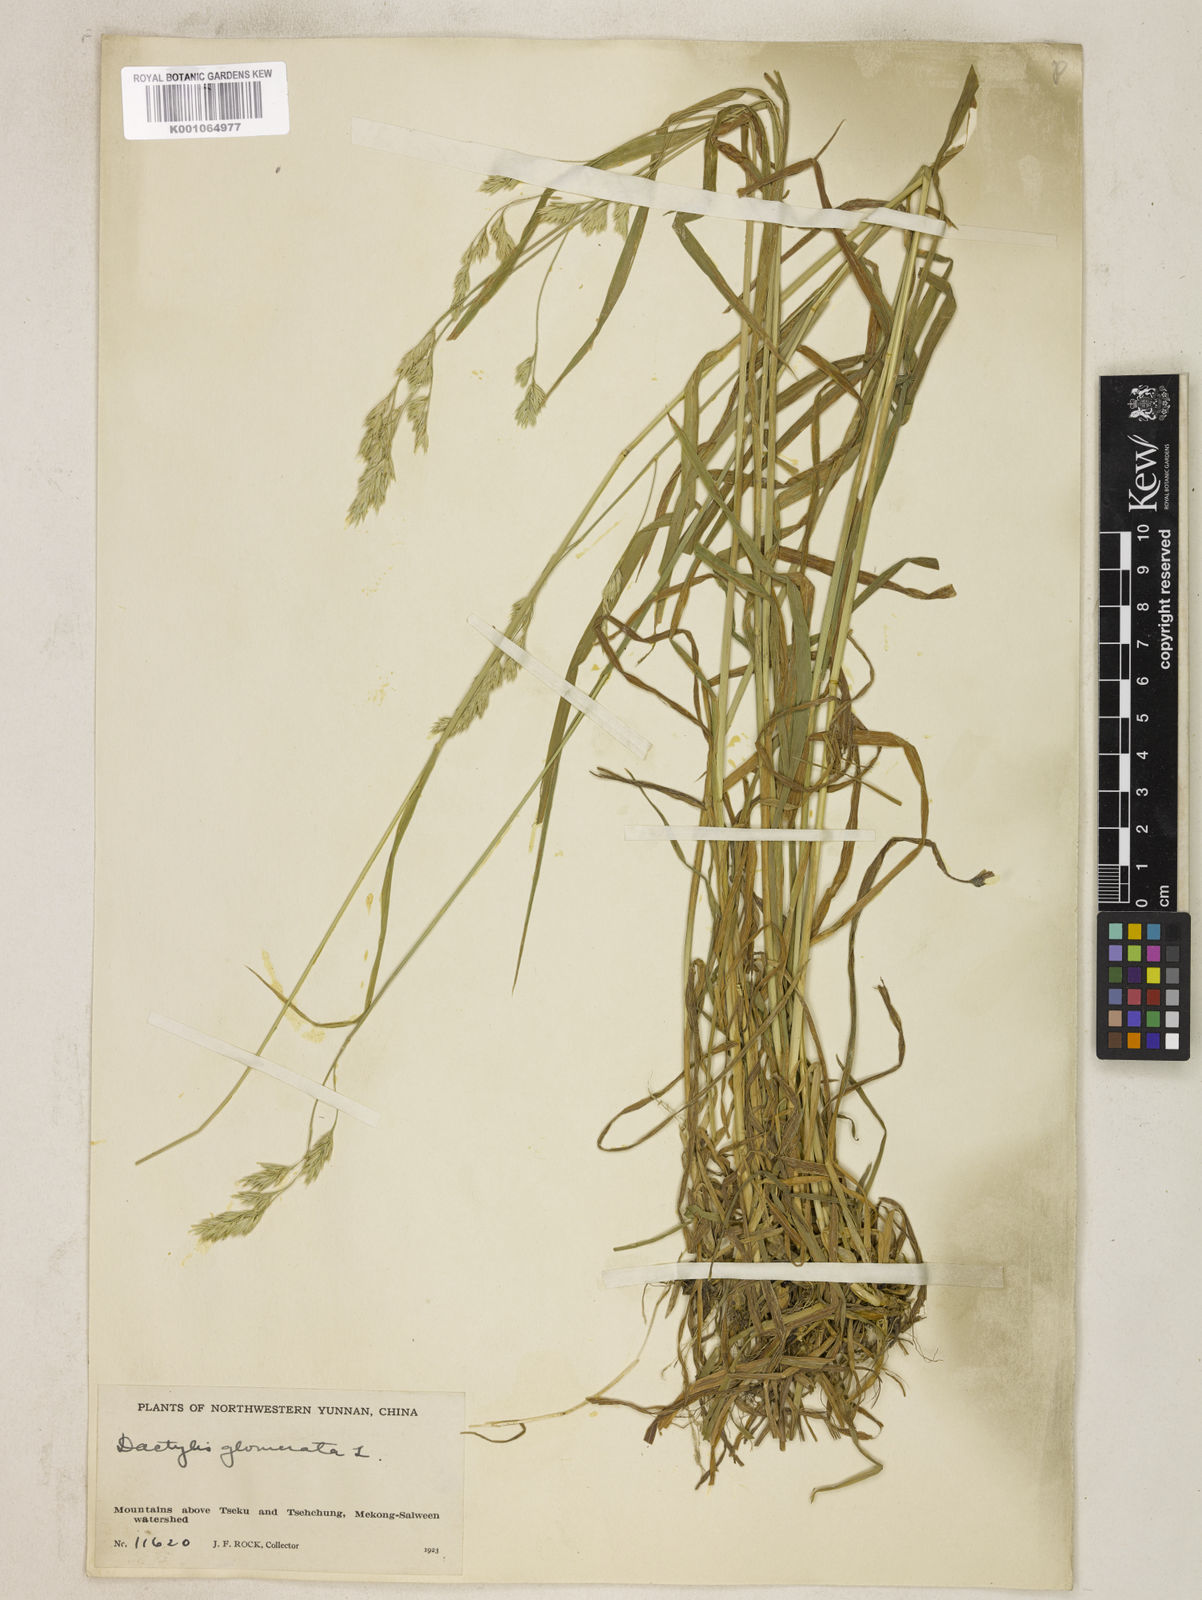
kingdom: Plantae
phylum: Tracheophyta
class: Liliopsida
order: Poales
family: Poaceae
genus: Dactylis
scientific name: Dactylis glomerata
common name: Orchardgrass
